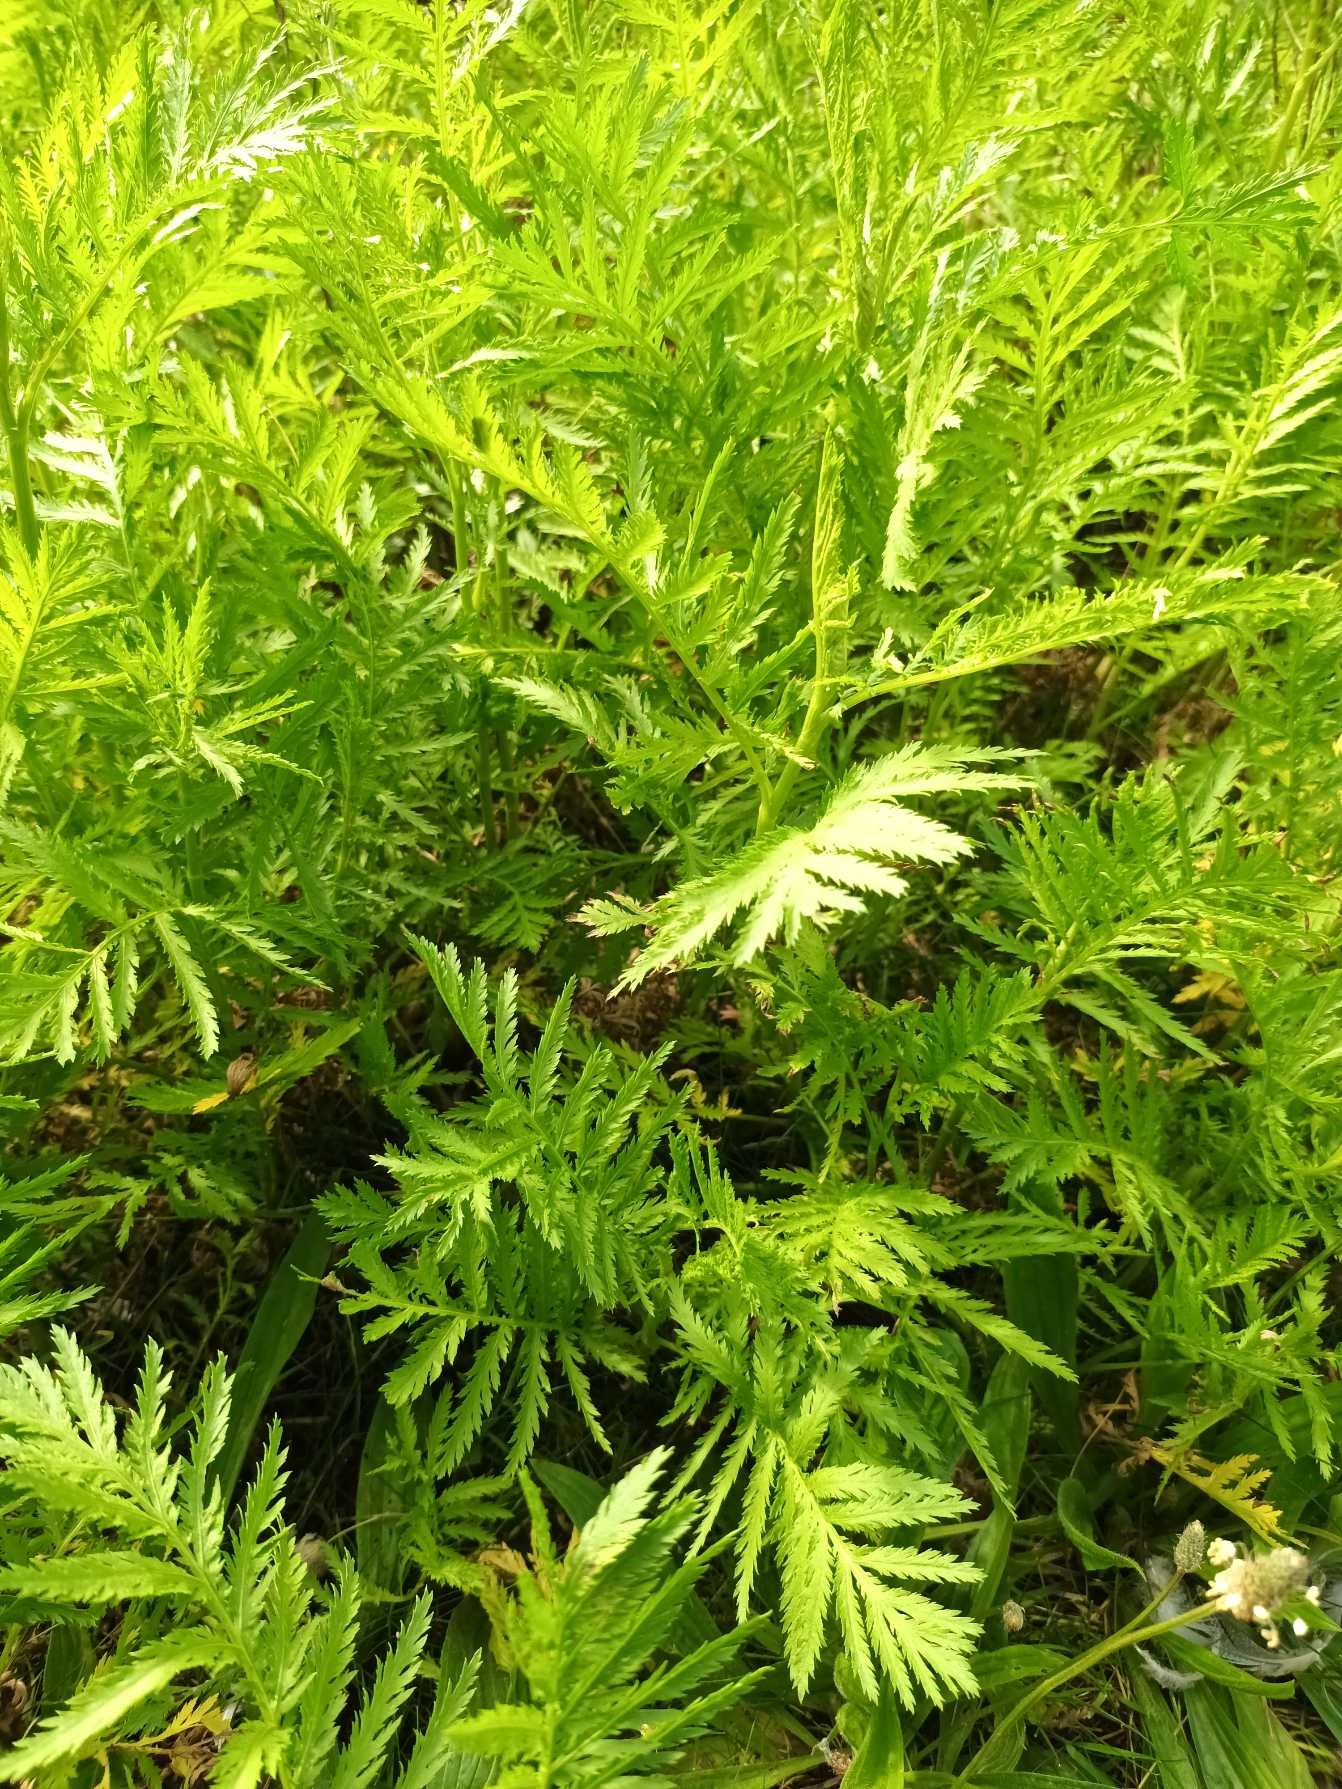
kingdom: Plantae
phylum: Tracheophyta
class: Magnoliopsida
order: Asterales
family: Asteraceae
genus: Tanacetum
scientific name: Tanacetum vulgare
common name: Rejnfan
